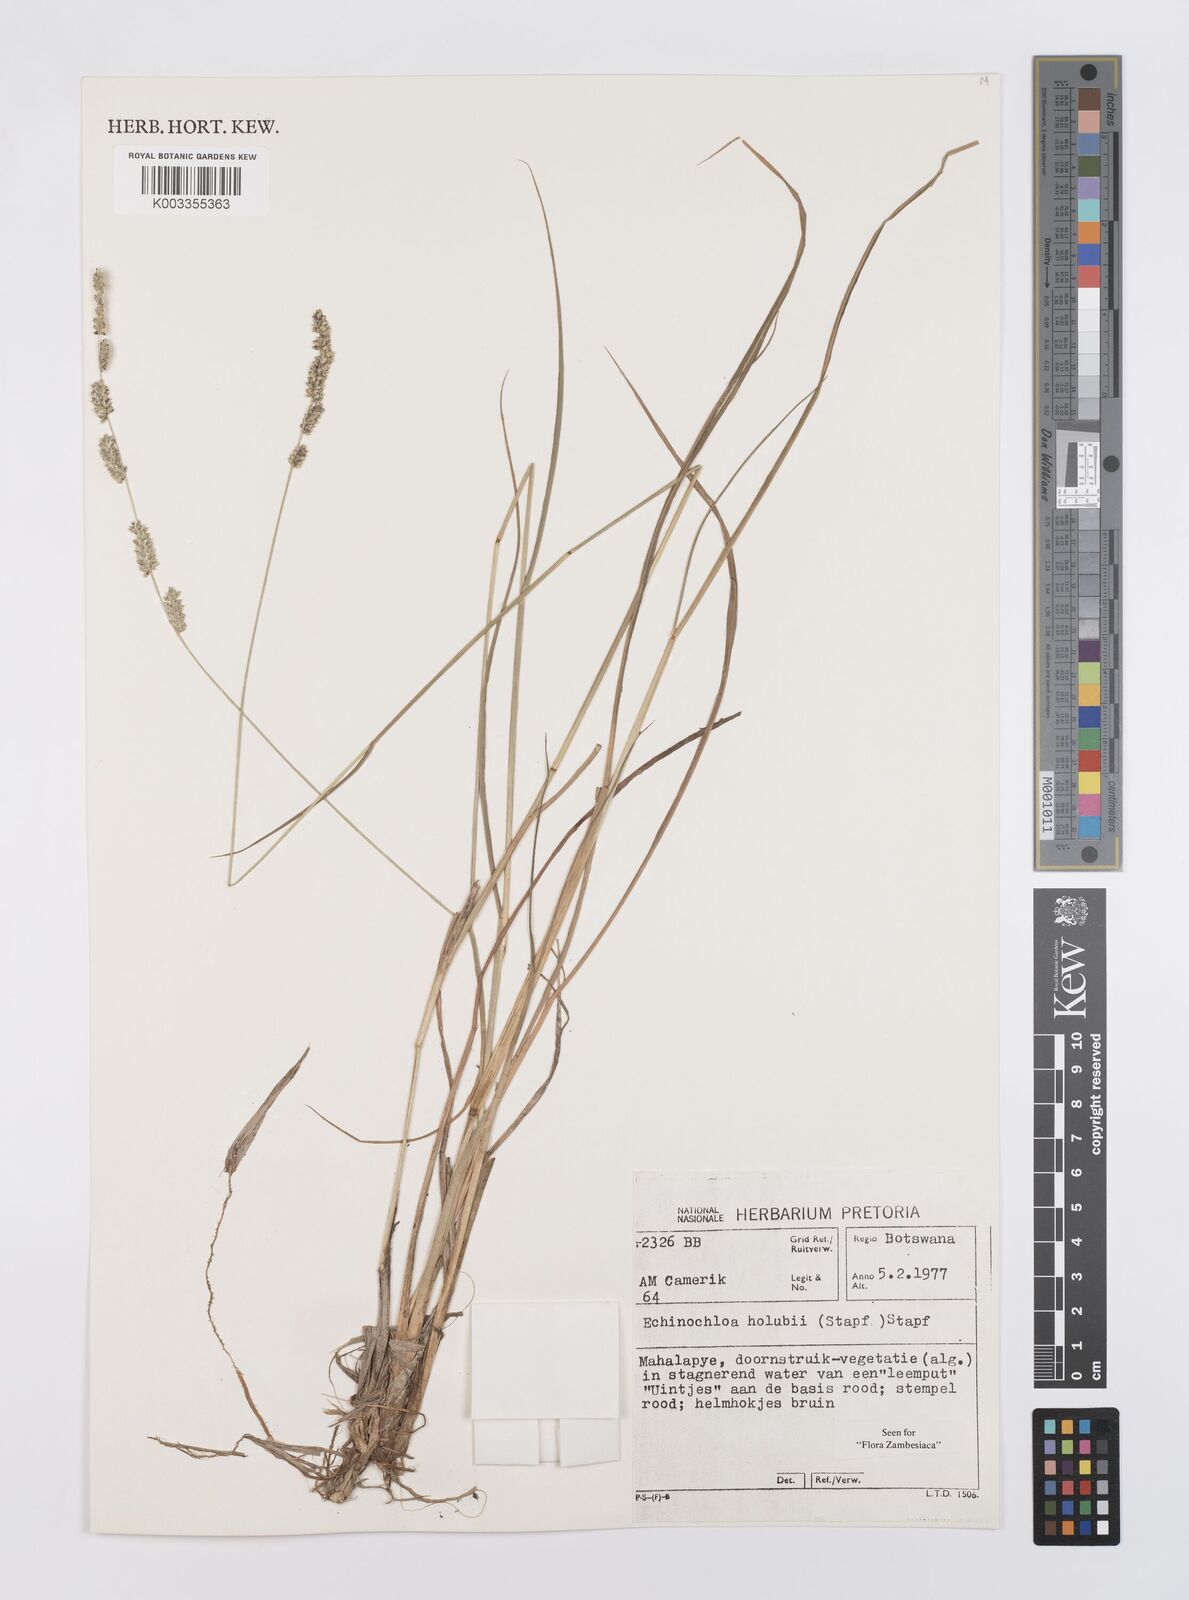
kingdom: Plantae
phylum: Tracheophyta
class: Liliopsida
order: Poales
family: Poaceae
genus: Echinochloa
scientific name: Echinochloa pyramidalis
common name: Antelope grass
